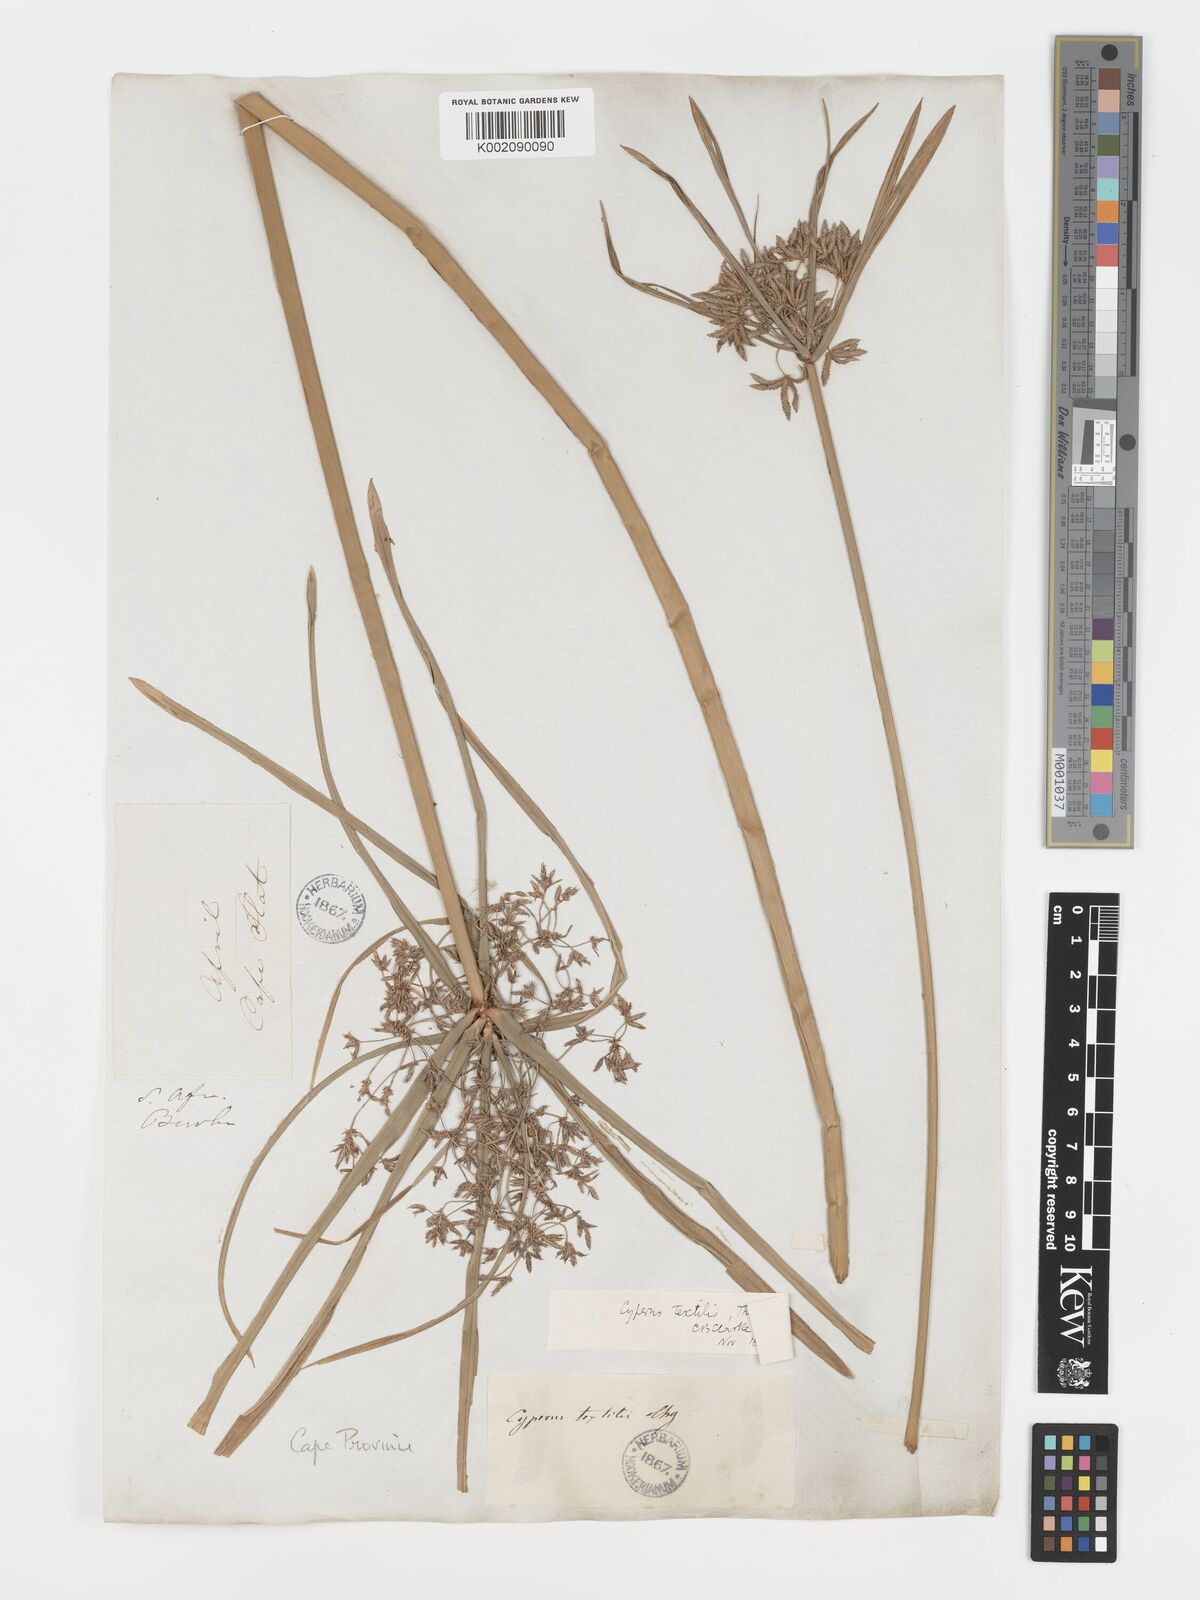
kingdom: Plantae
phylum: Tracheophyta
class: Liliopsida
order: Poales
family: Cyperaceae
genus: Cyperus
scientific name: Cyperus alternifolius
